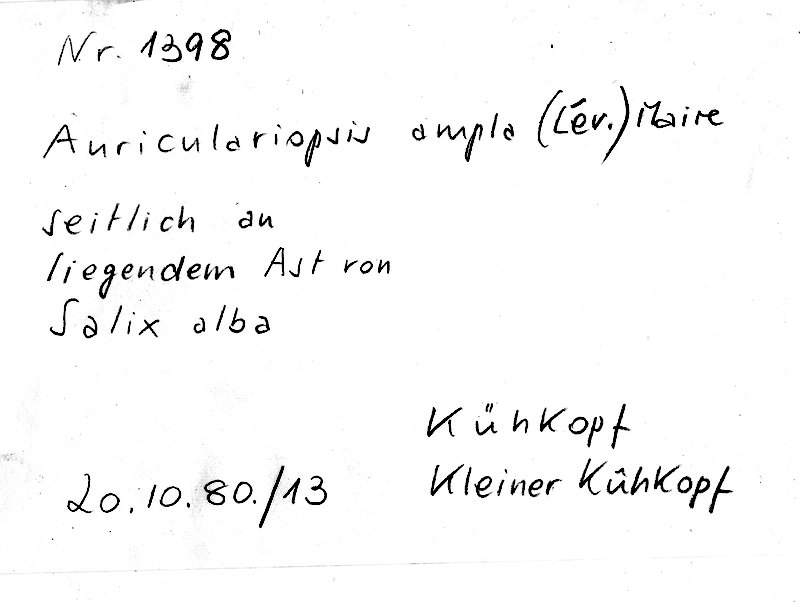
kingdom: Plantae
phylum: Tracheophyta
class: Magnoliopsida
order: Malpighiales
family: Salicaceae
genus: Salix
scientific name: Salix alba
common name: White willow
